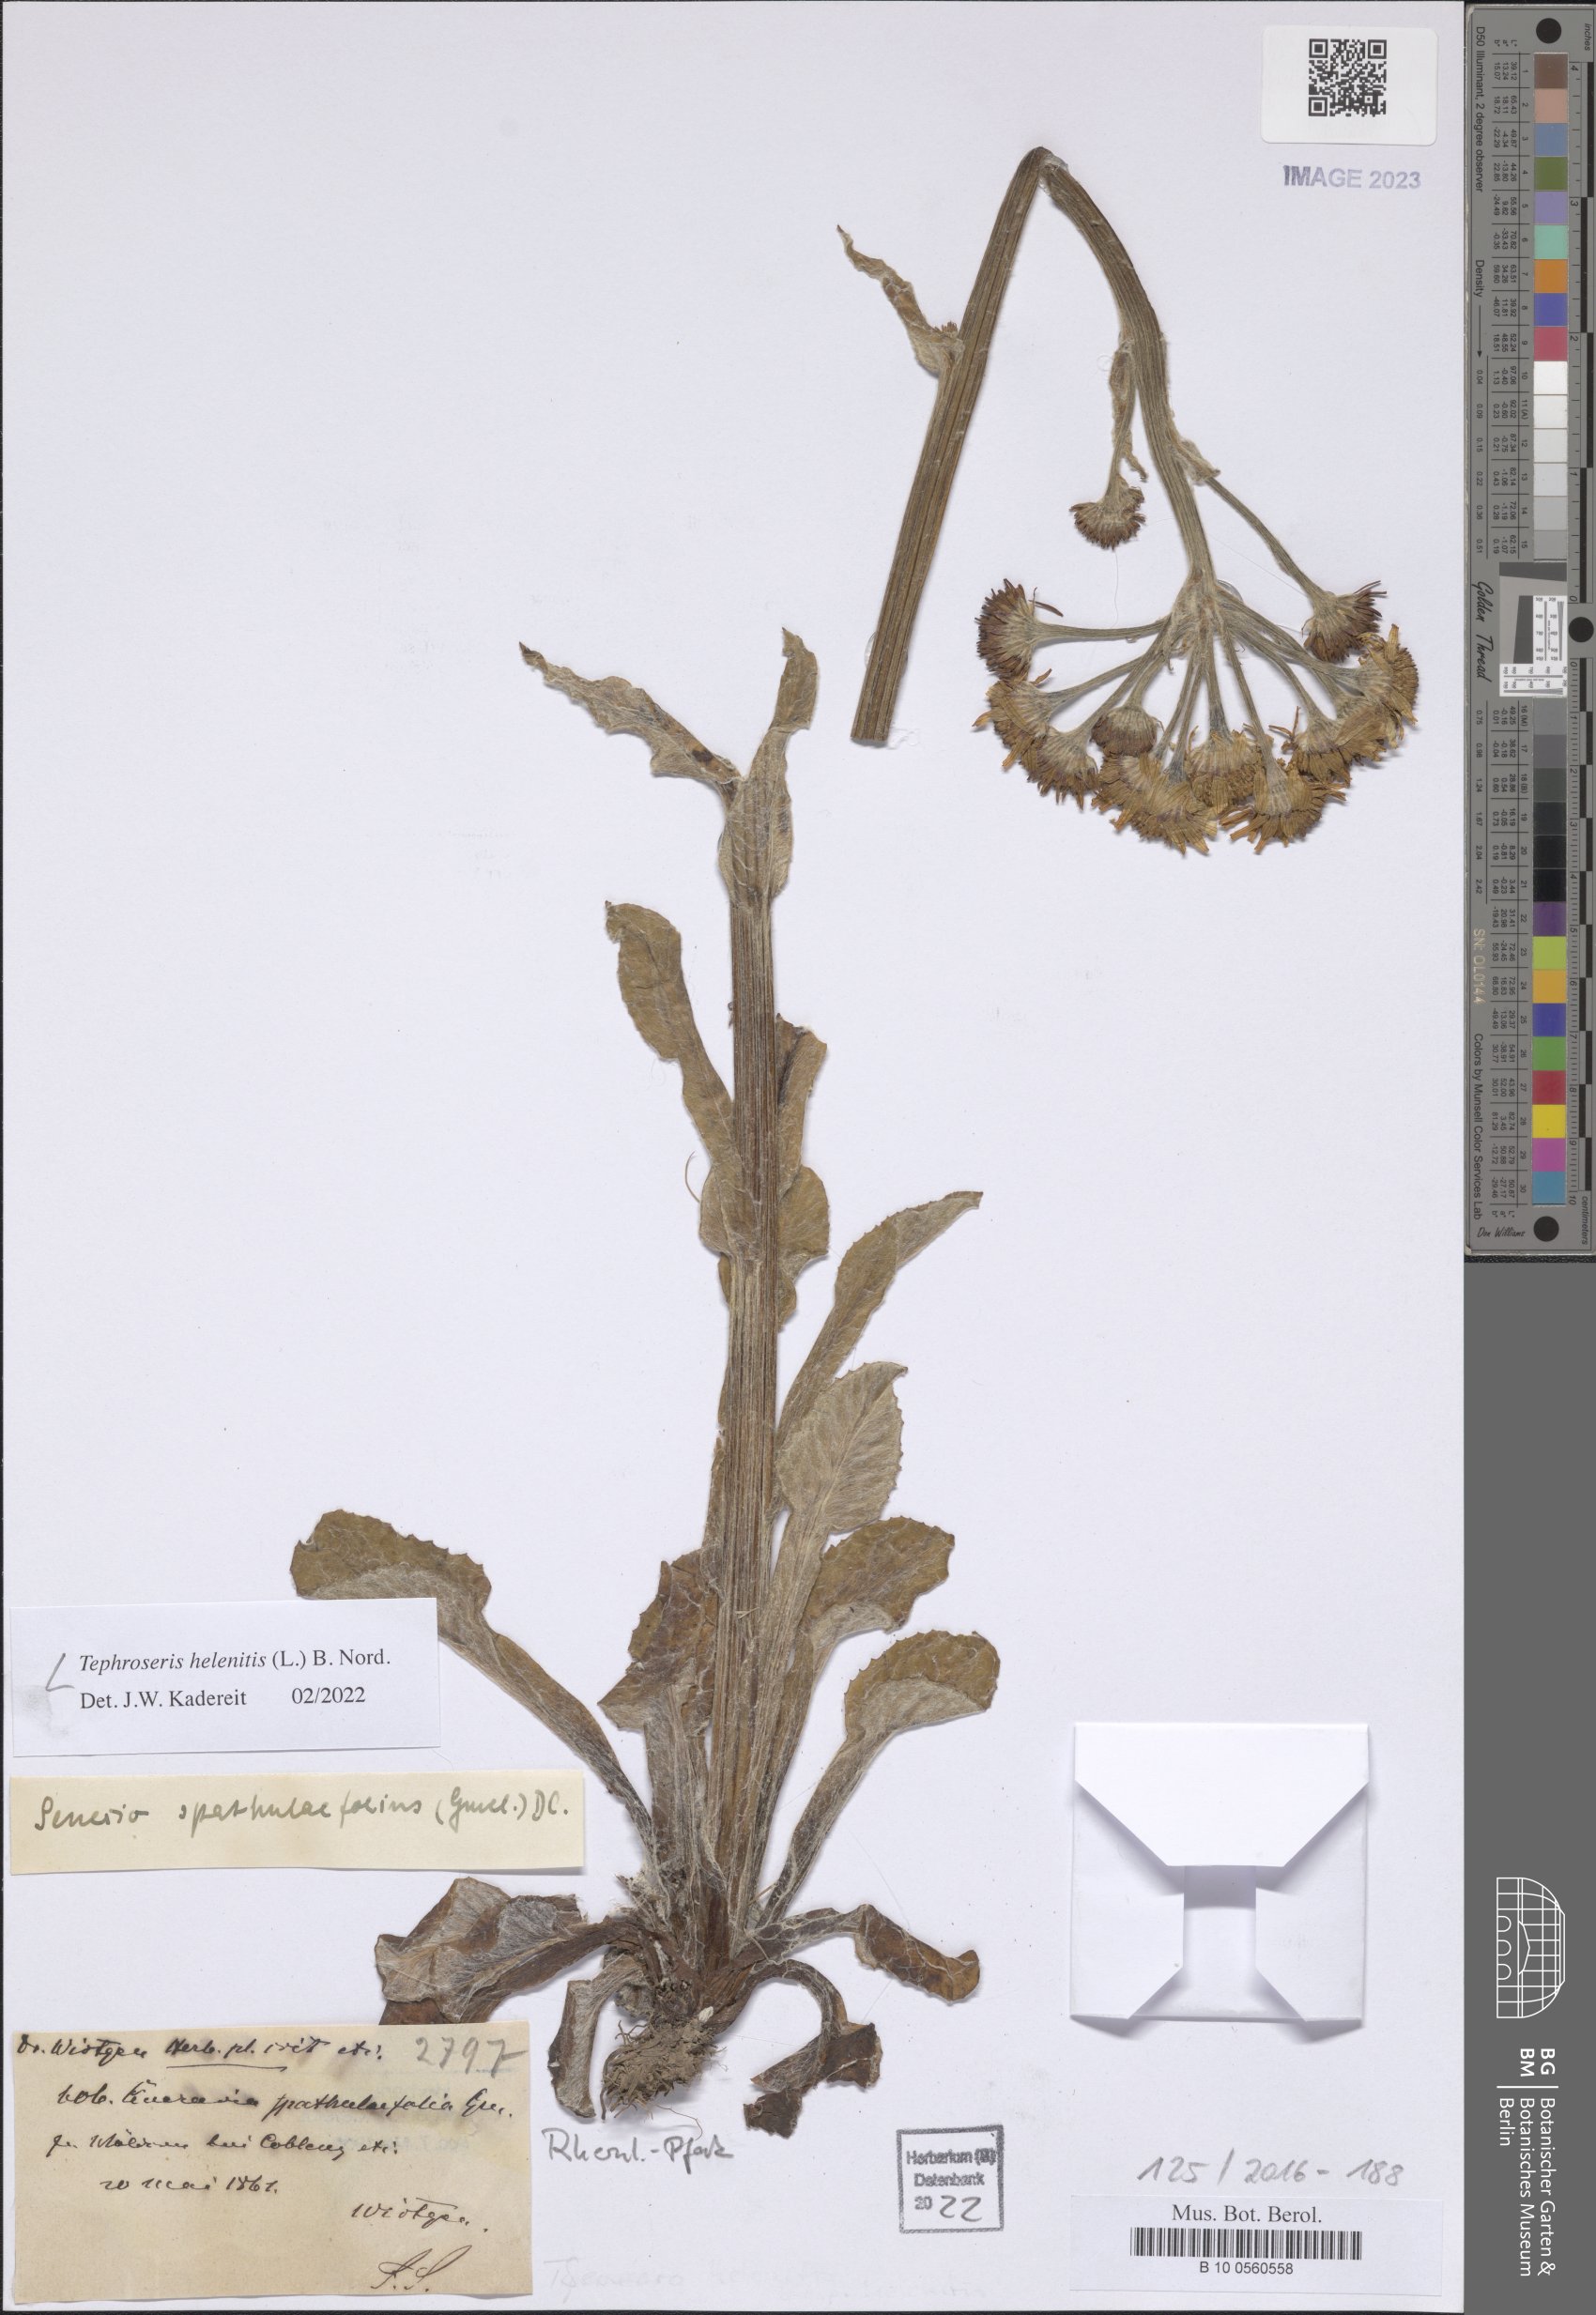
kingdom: Plantae
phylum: Tracheophyta
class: Magnoliopsida
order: Asterales
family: Asteraceae
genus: Tephroseris
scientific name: Tephroseris helenitis
